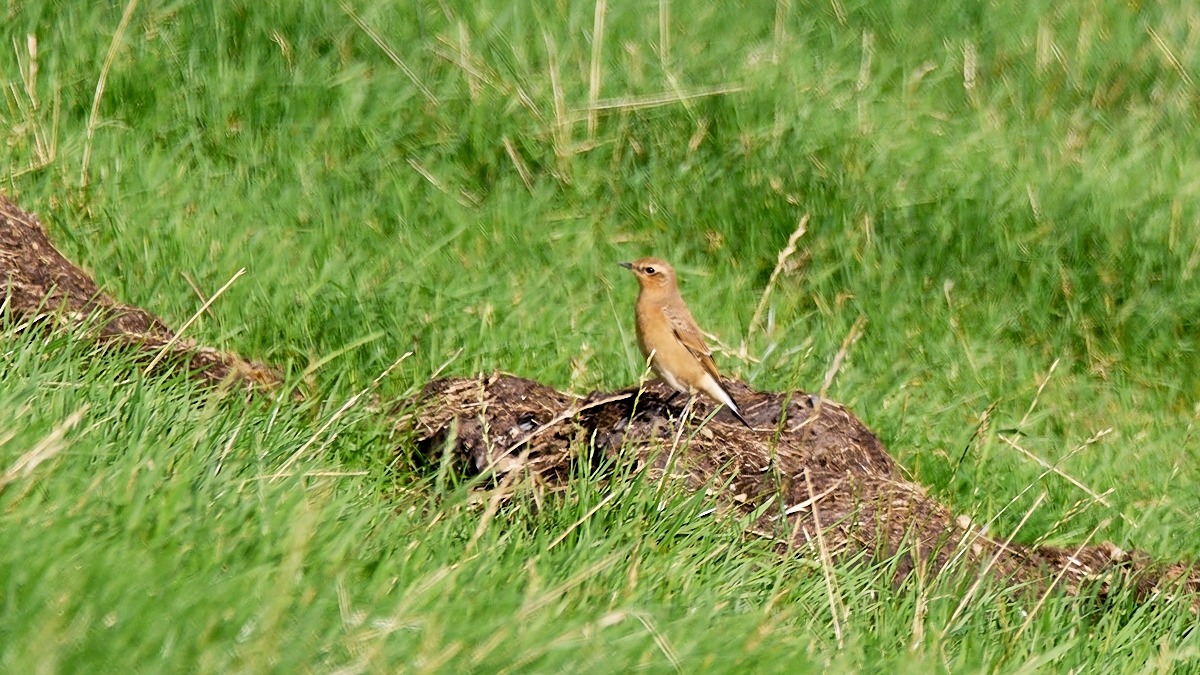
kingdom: Animalia
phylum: Chordata
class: Aves
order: Passeriformes
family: Muscicapidae
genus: Oenanthe
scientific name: Oenanthe oenanthe
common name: Stenpikker
